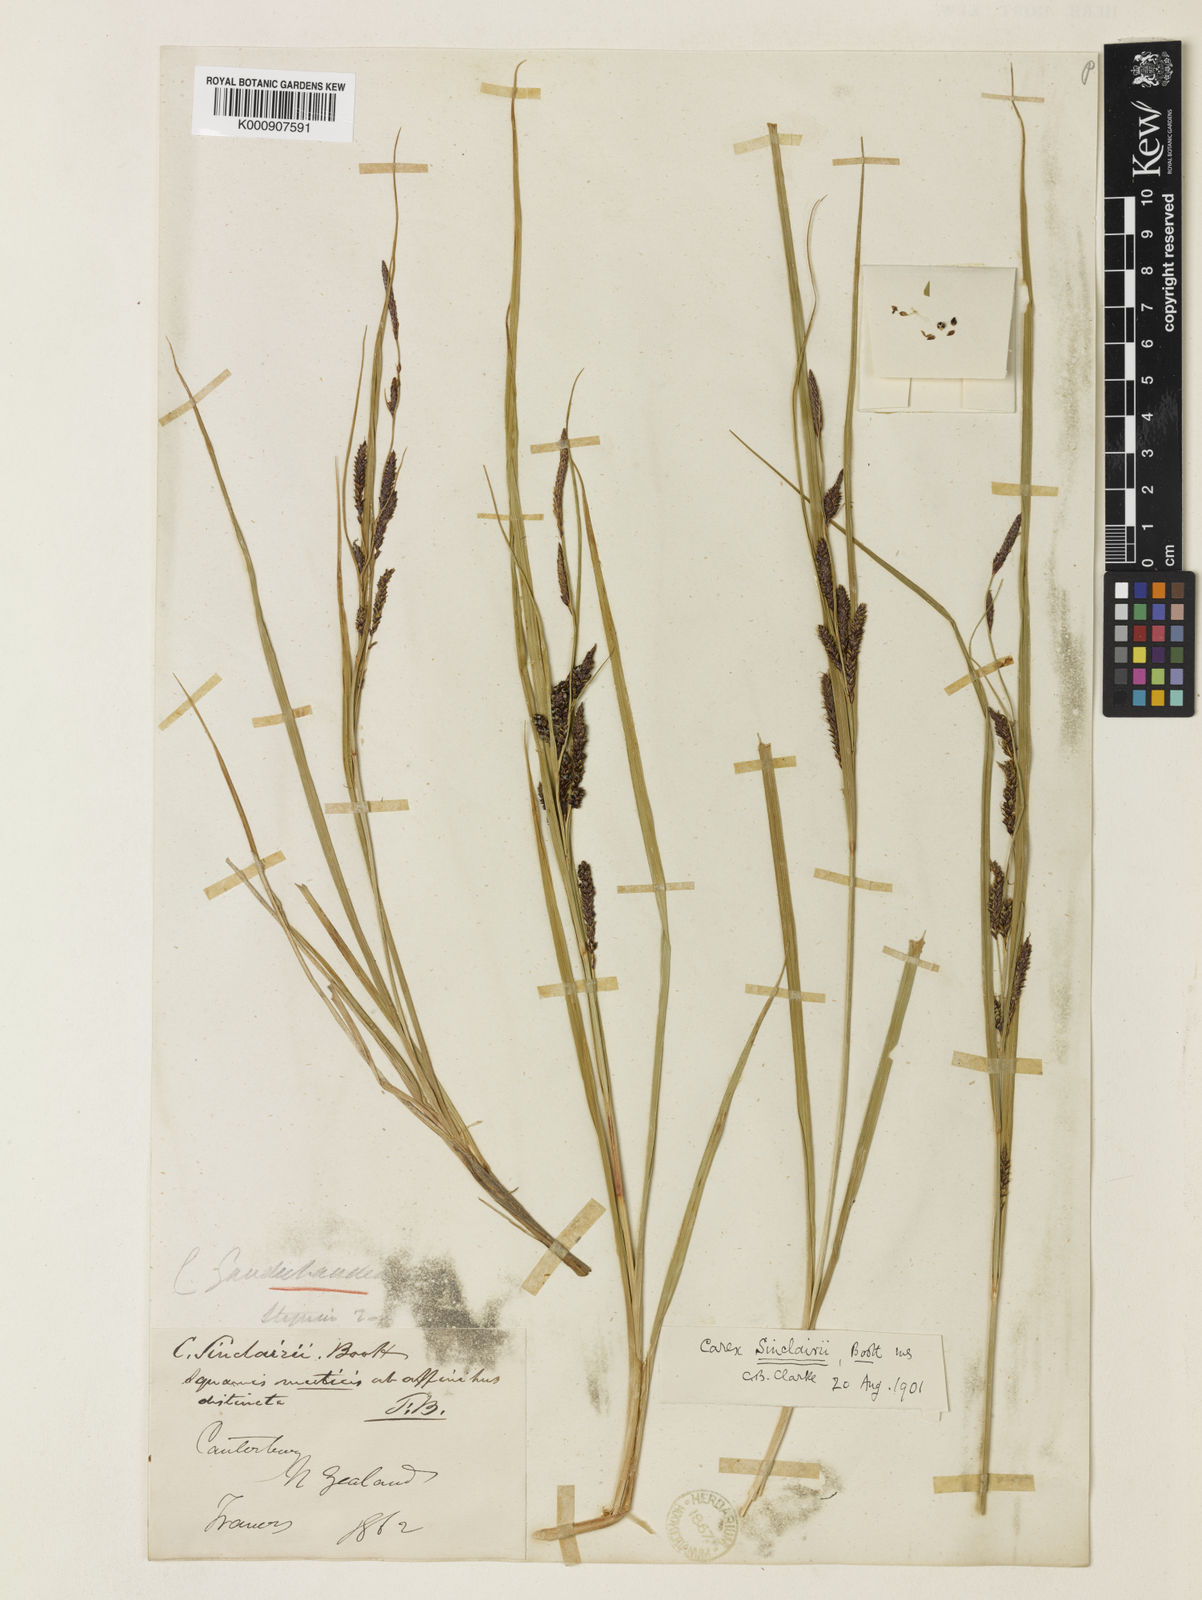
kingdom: Plantae
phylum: Tracheophyta
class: Liliopsida
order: Poales
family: Cyperaceae
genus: Carex
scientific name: Carex sinclairii
